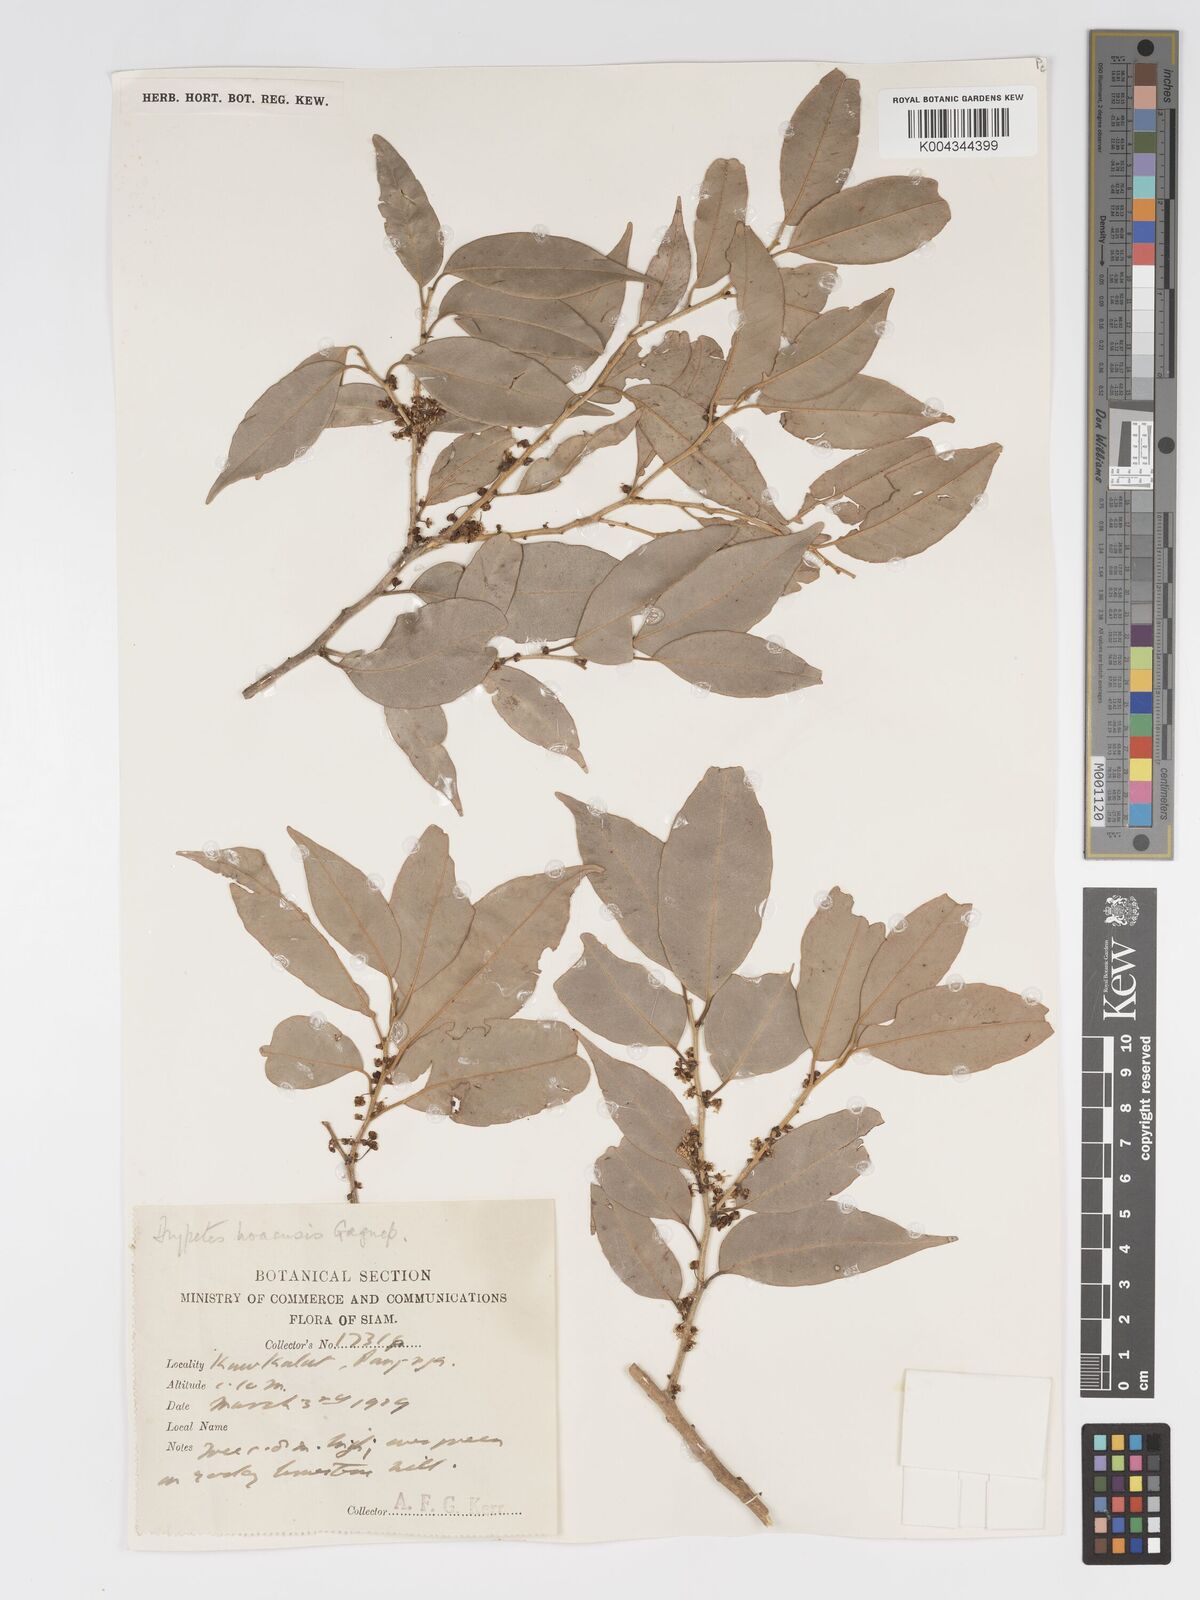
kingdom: Plantae
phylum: Tracheophyta
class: Magnoliopsida
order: Malpighiales
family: Putranjivaceae
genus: Drypetes
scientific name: Drypetes hoaensis
